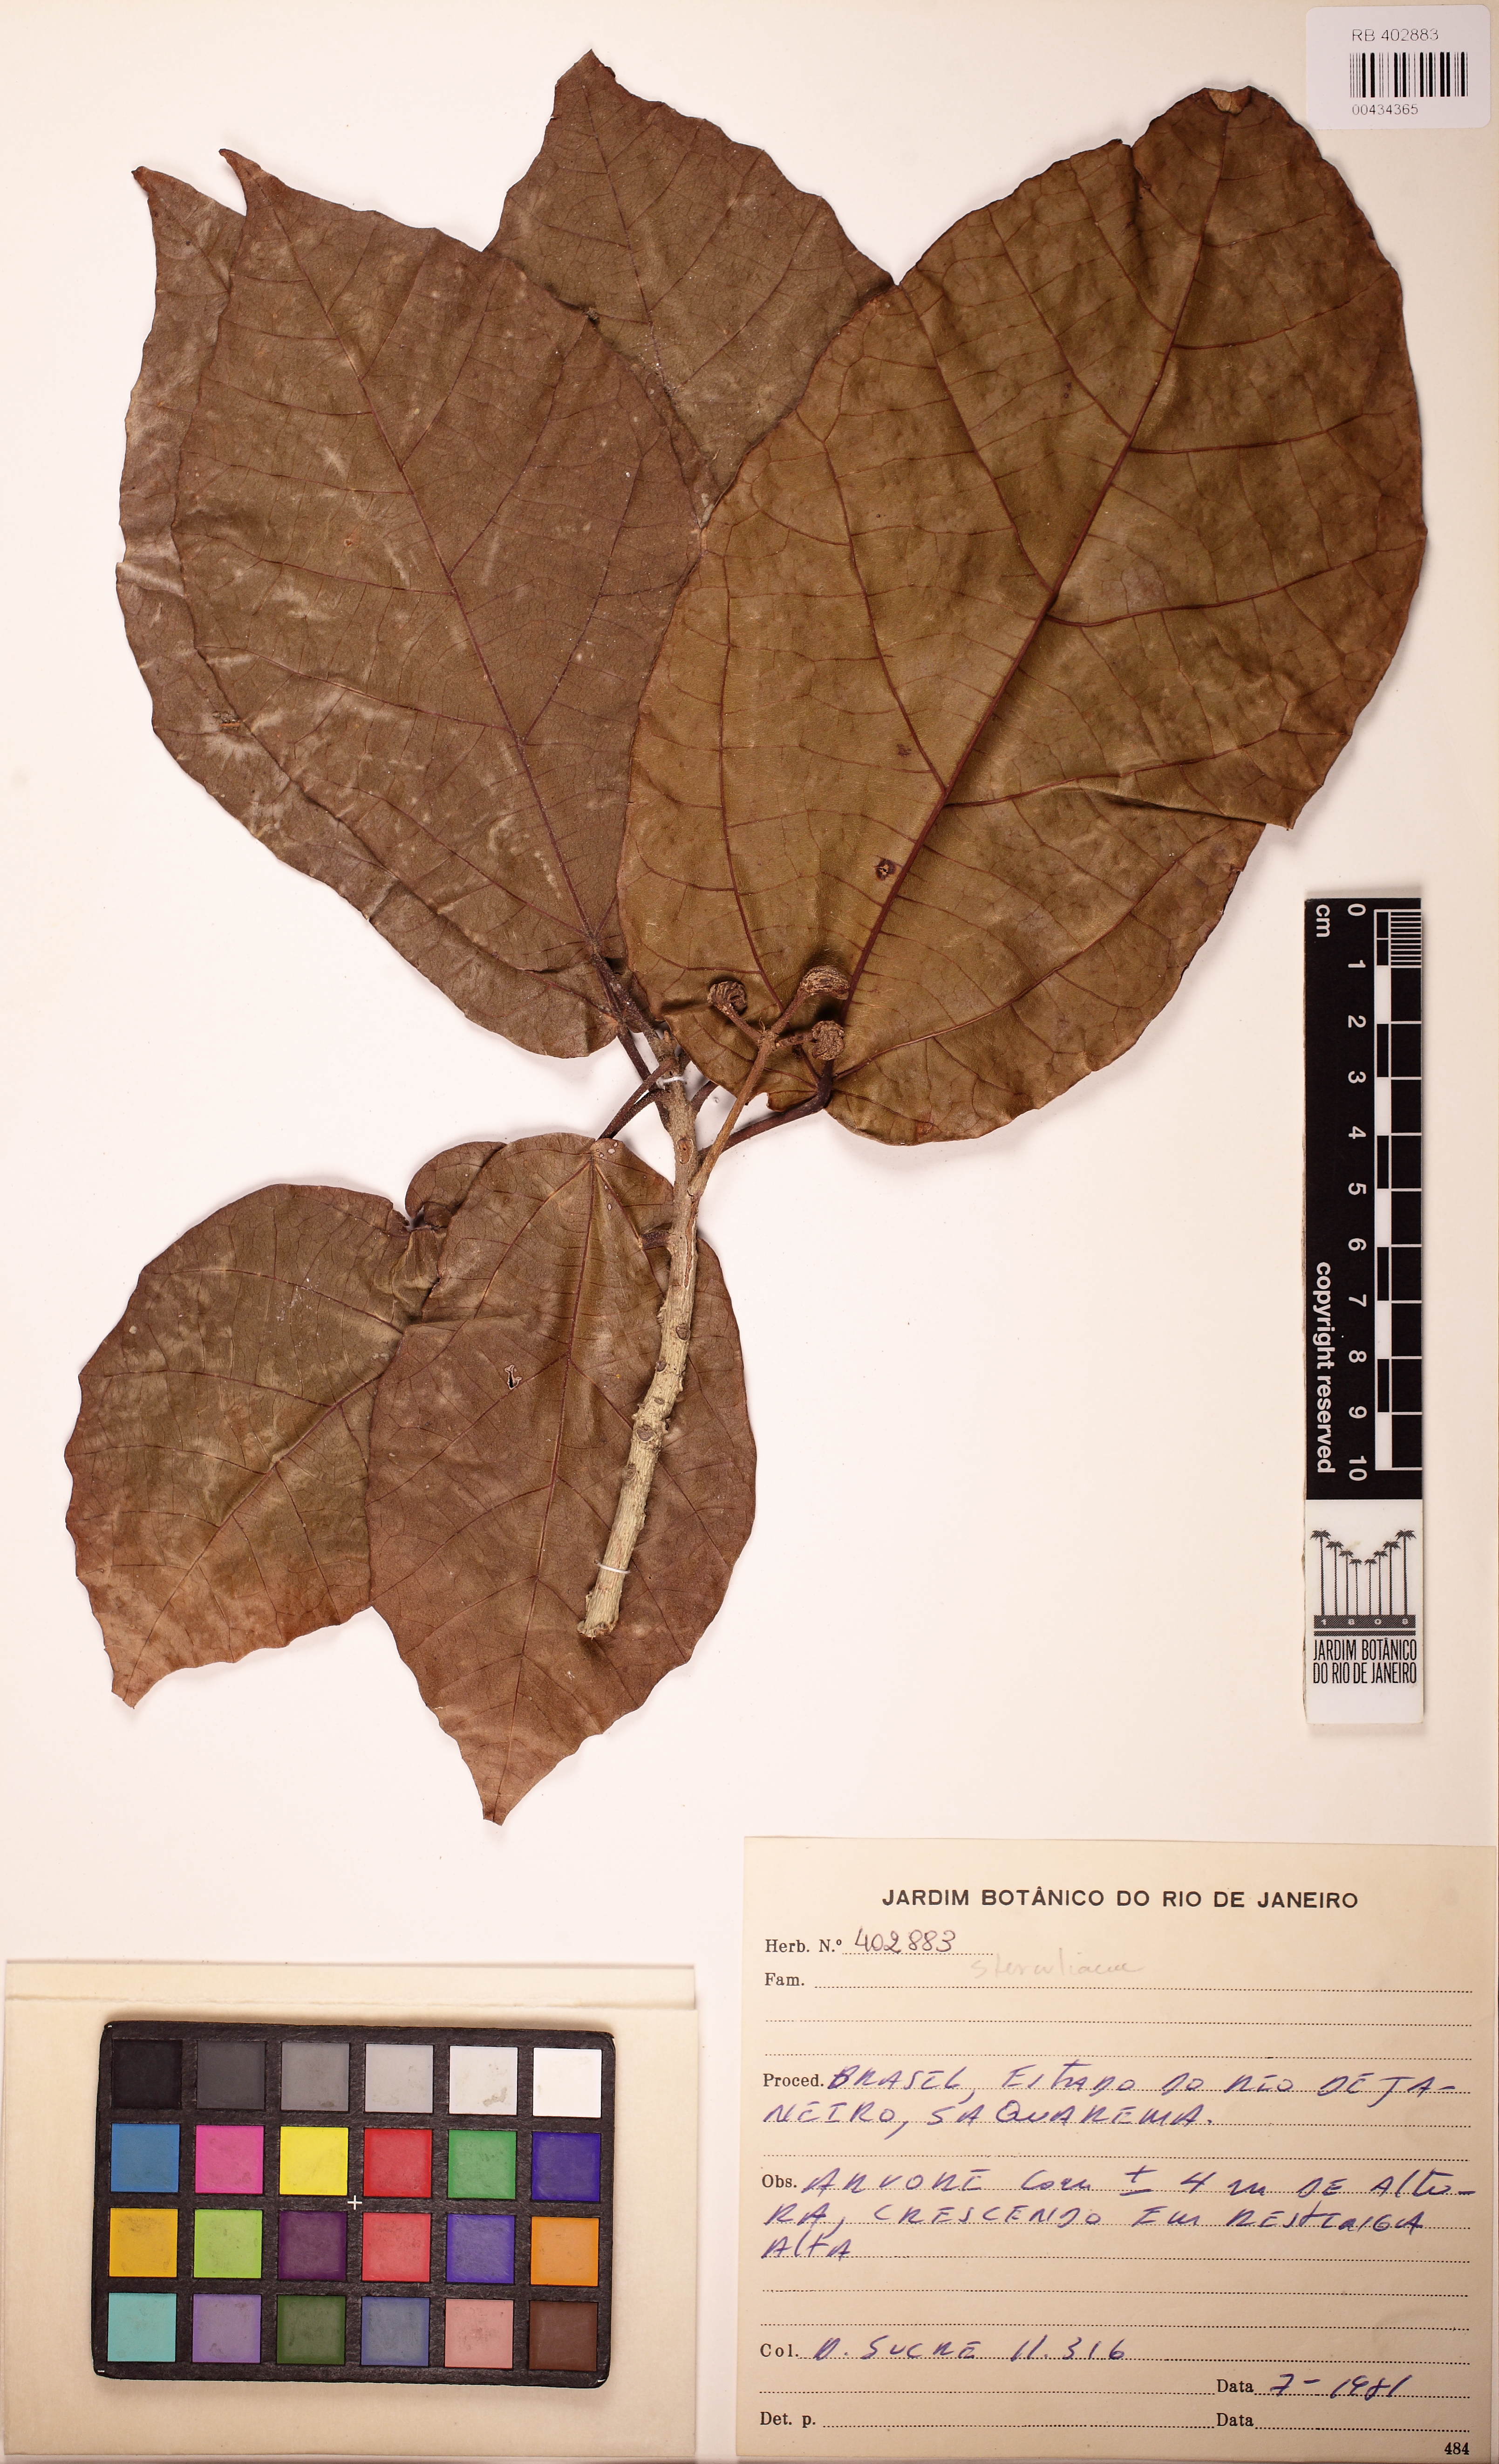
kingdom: Plantae
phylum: Tracheophyta
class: Magnoliopsida
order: Malvales
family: Malvaceae
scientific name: Malvaceae
